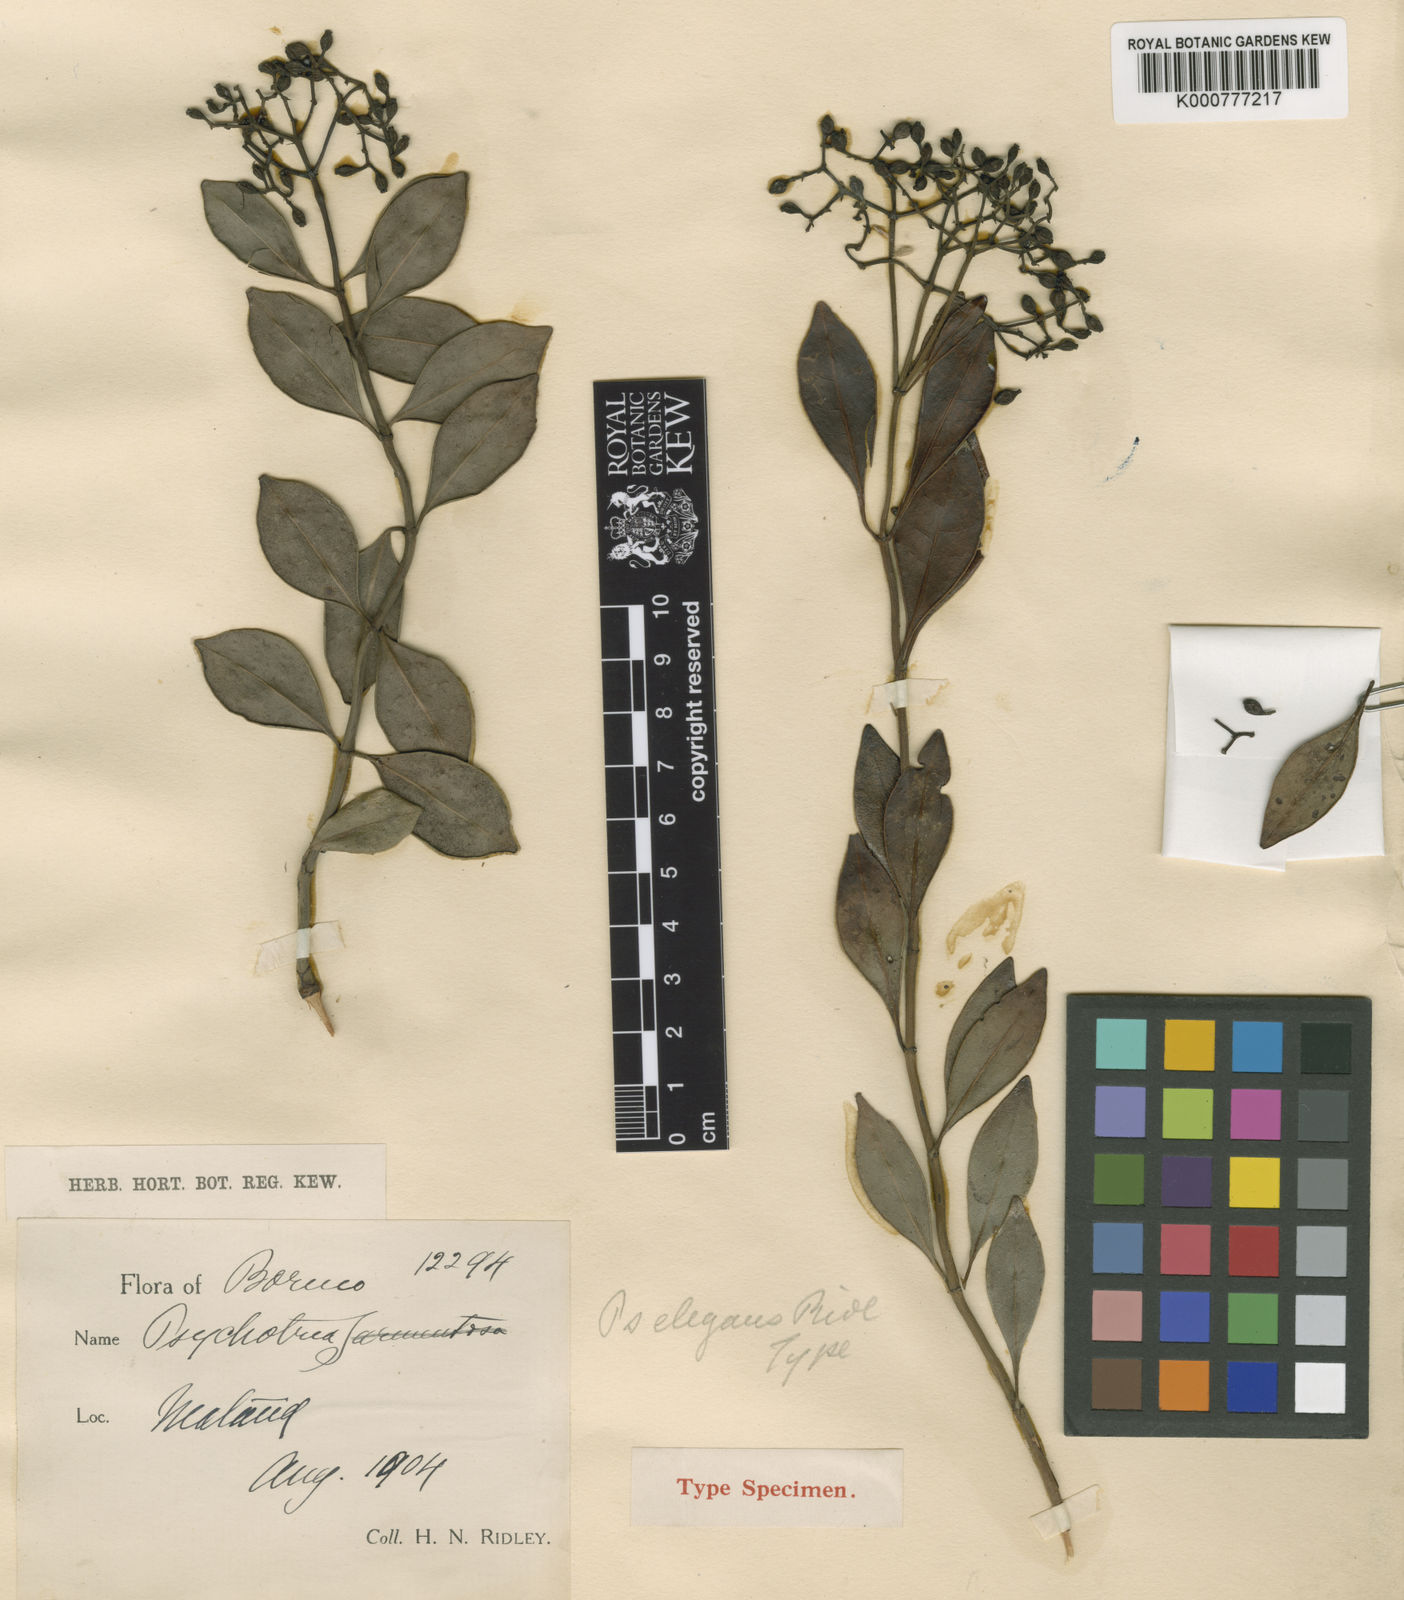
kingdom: Plantae
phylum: Tracheophyta
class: Magnoliopsida
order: Gentianales
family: Rubiaceae
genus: Psychotria
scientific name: Psychotria elegans
